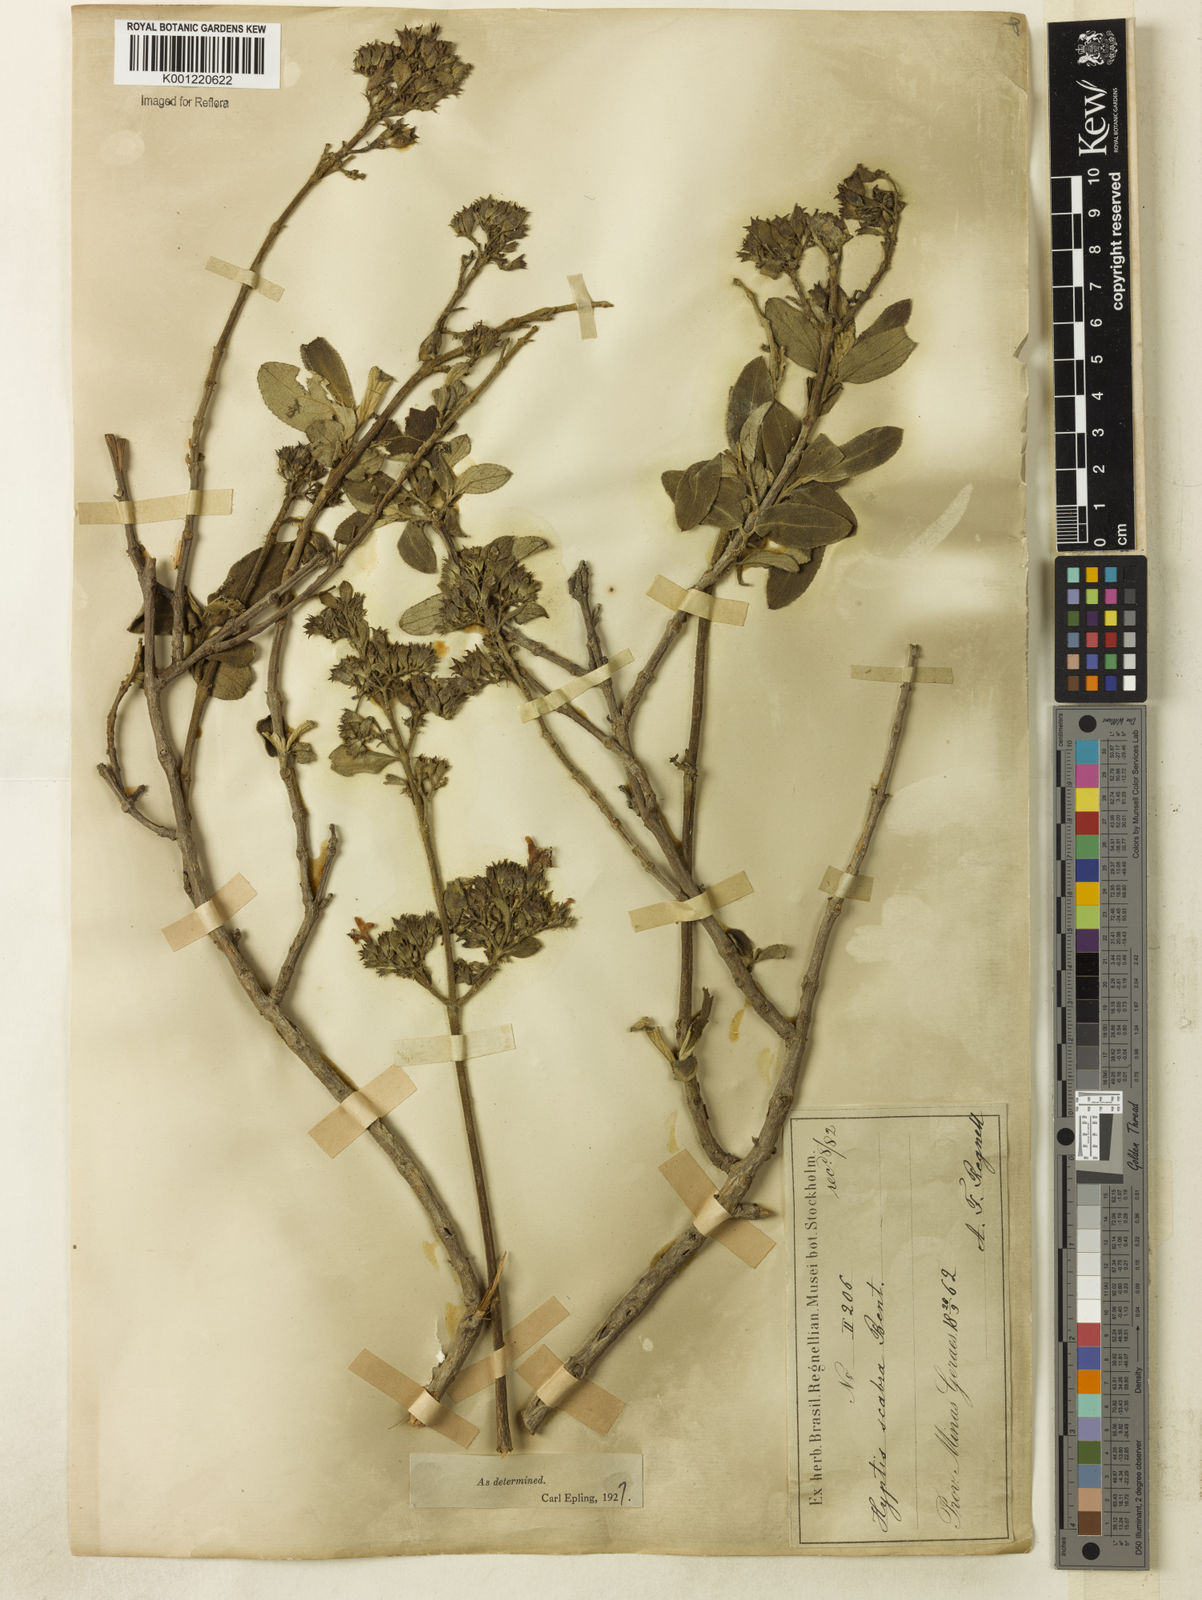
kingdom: Plantae
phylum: Tracheophyta
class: Magnoliopsida
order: Lamiales
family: Lamiaceae
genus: Hyptidendron
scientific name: Hyptidendron canum
